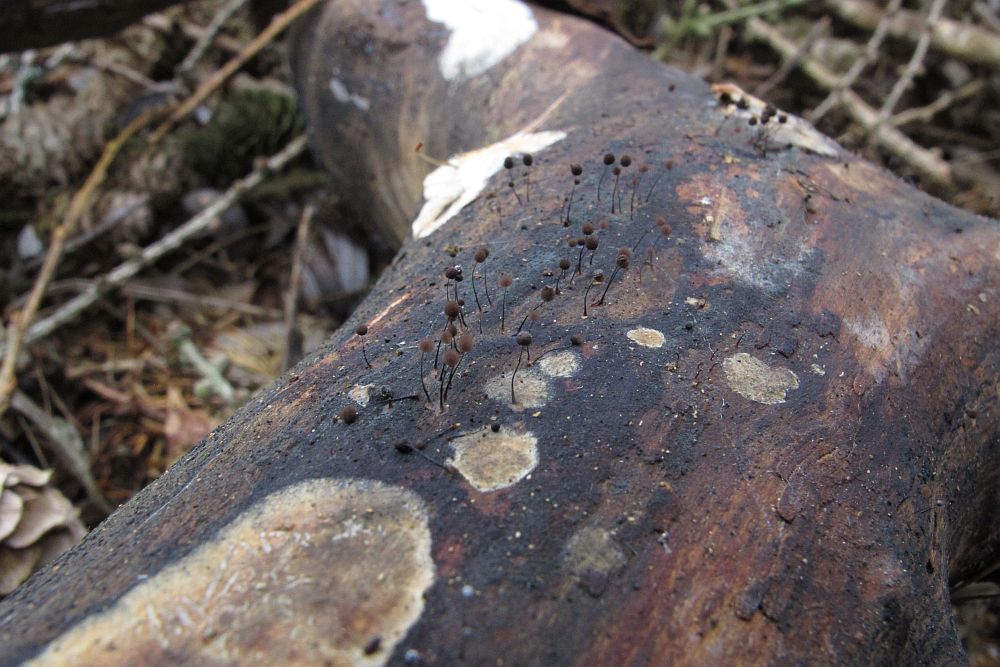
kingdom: Protozoa
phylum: Mycetozoa
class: Myxomycetes
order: Stemonitidales
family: Stemonitidaceae
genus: Comatricha
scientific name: Comatricha nigra
